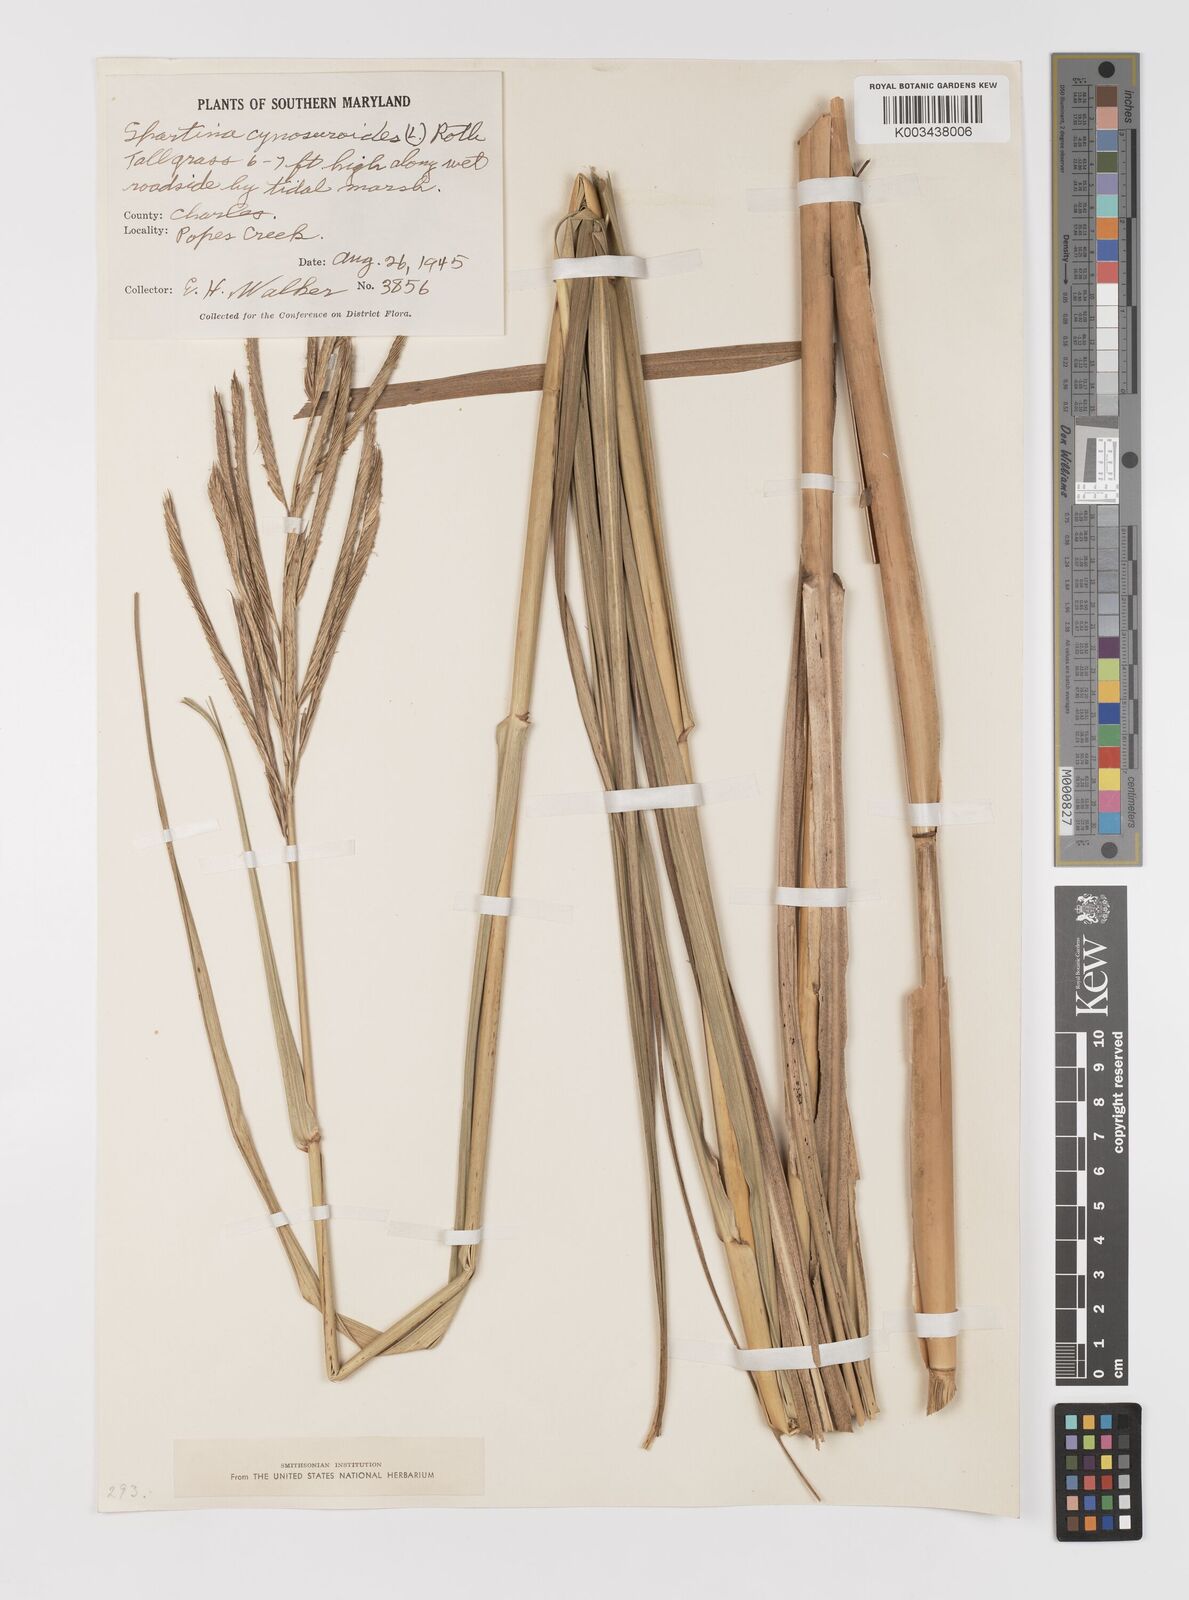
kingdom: Plantae
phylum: Tracheophyta
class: Liliopsida
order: Poales
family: Poaceae
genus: Sporobolus
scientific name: Sporobolus cynosuroides
